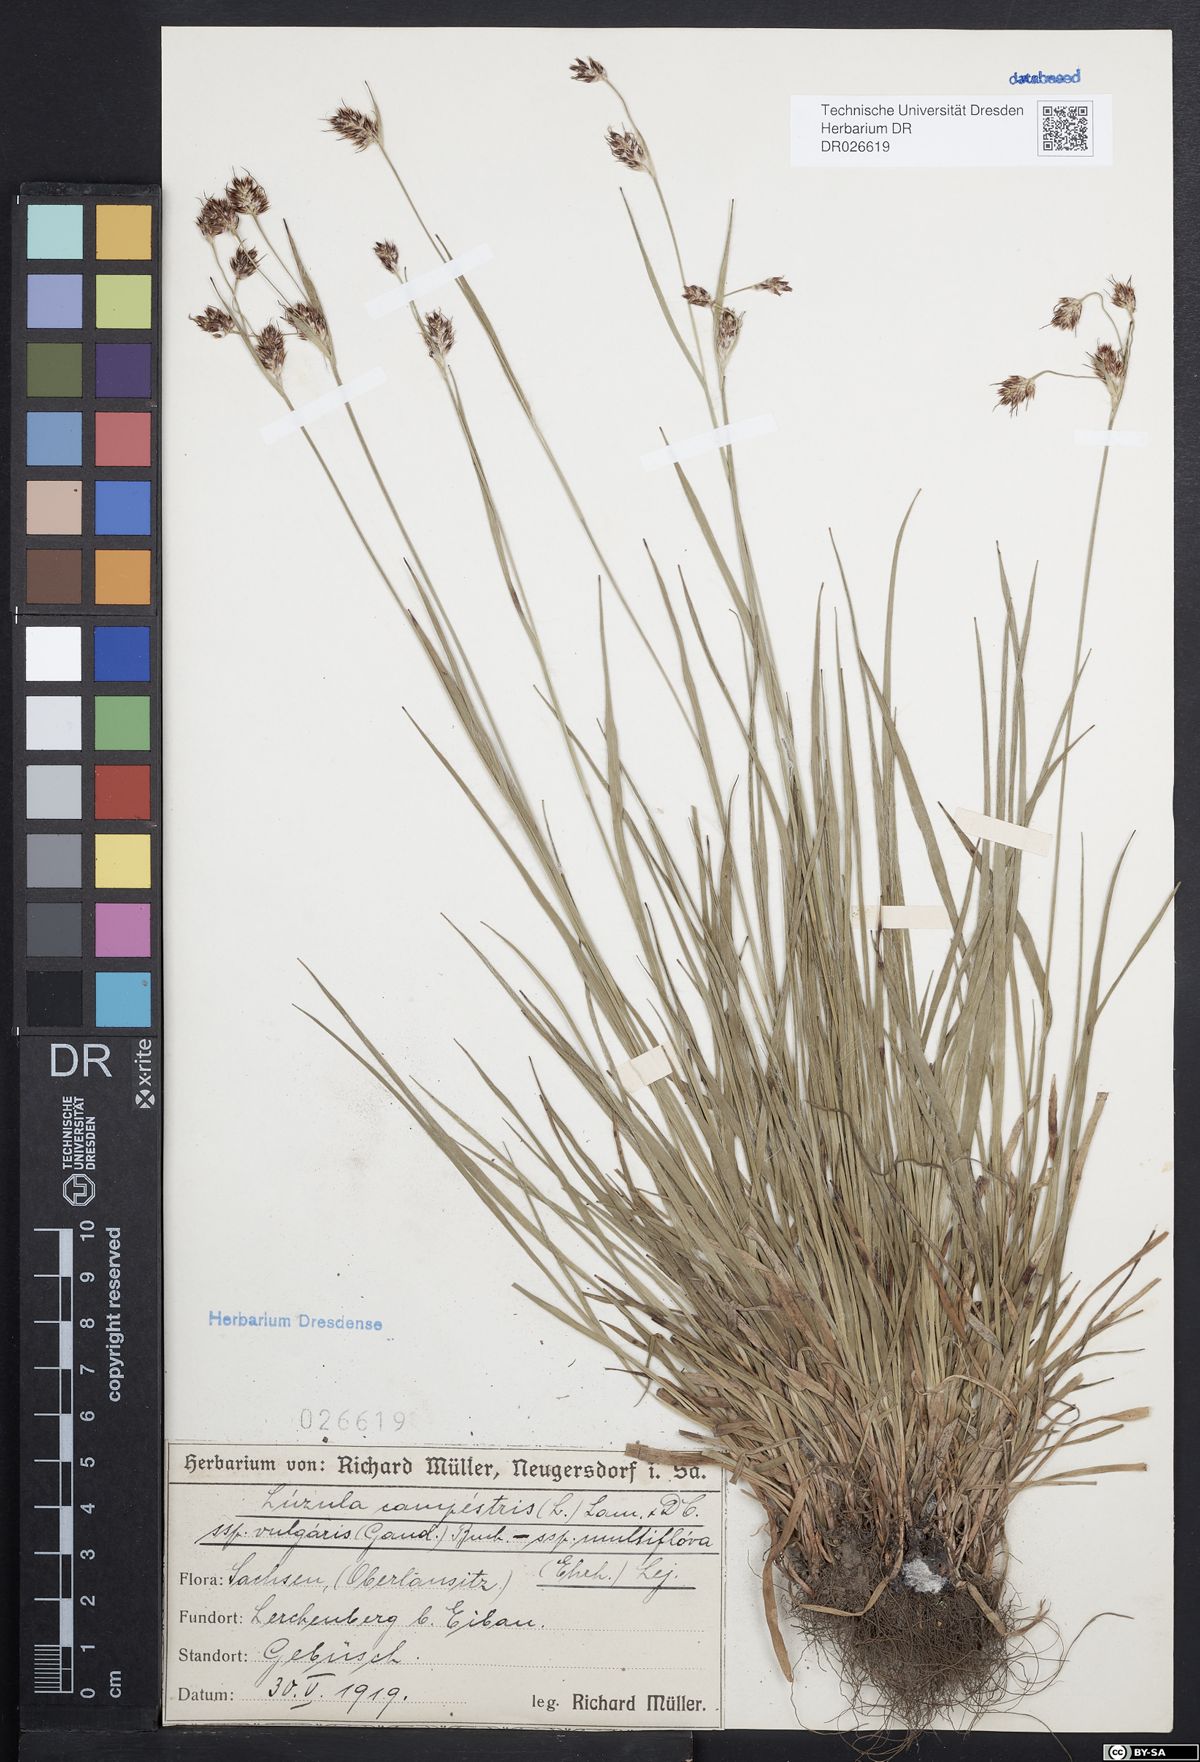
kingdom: Plantae
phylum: Tracheophyta
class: Liliopsida
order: Poales
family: Juncaceae
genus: Luzula
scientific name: Luzula campestris
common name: Field wood-rush
